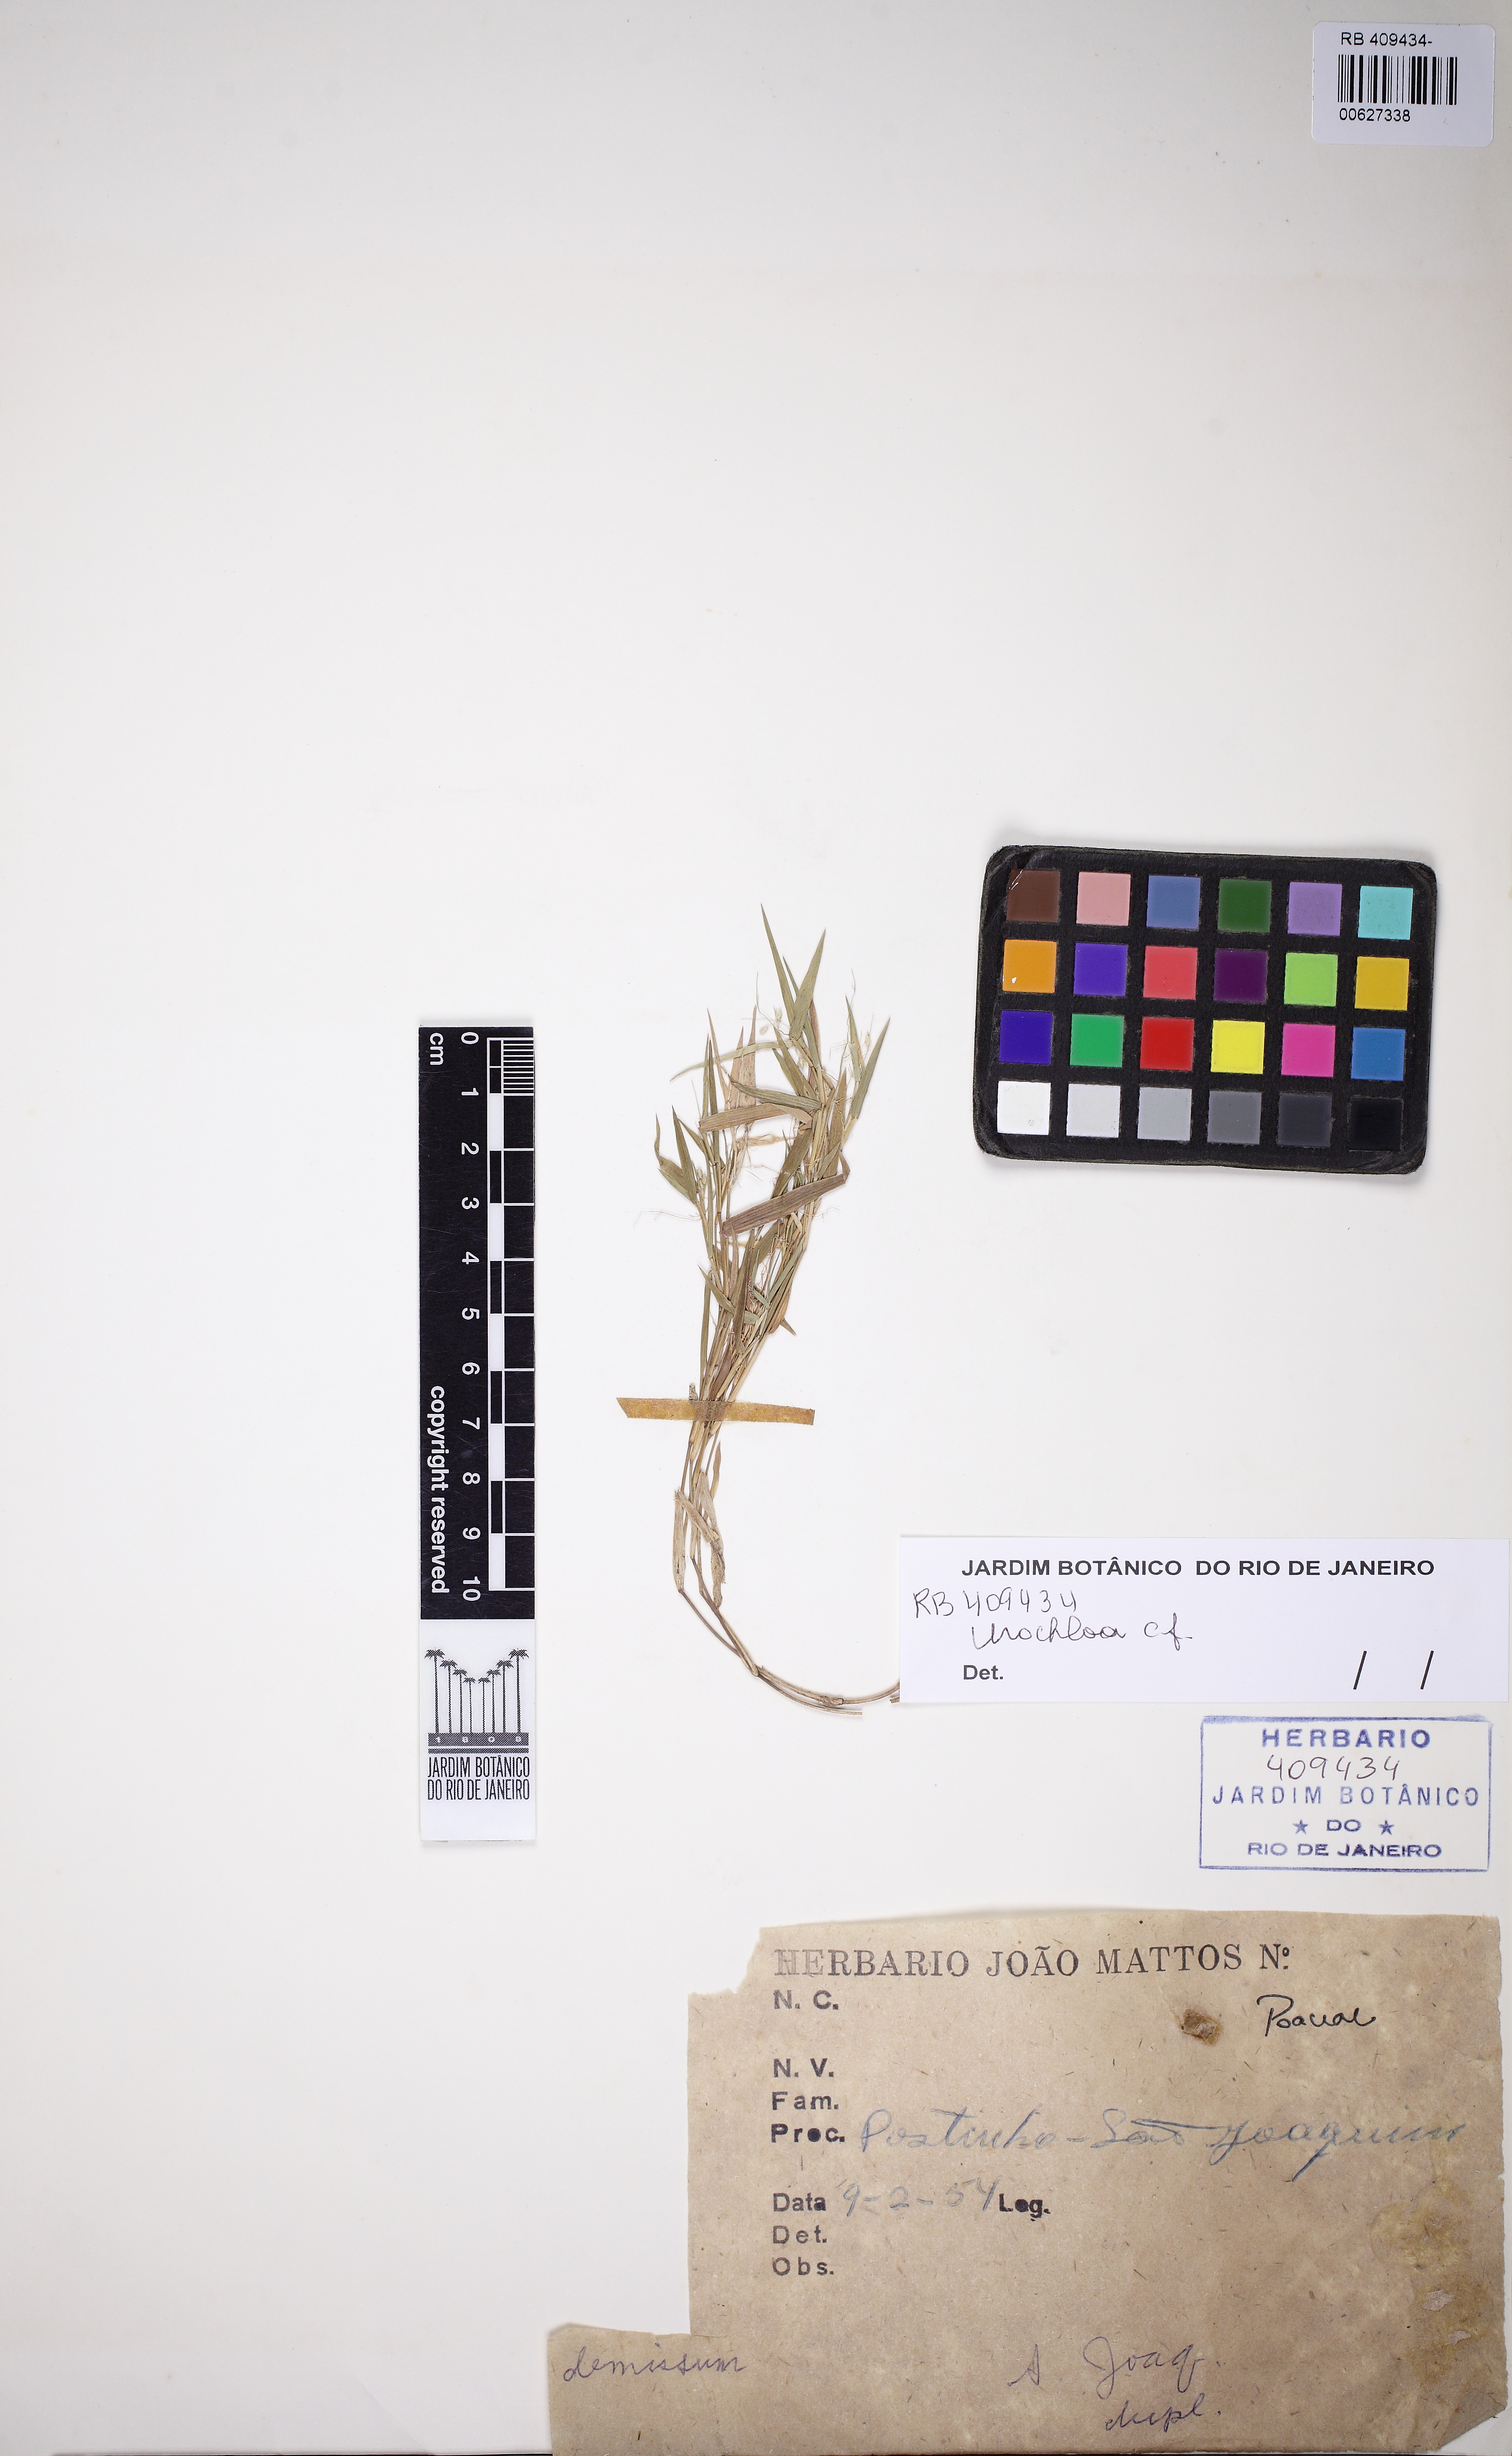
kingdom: Plantae
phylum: Tracheophyta
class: Liliopsida
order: Poales
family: Poaceae
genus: Urochloa
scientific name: Urochloa
